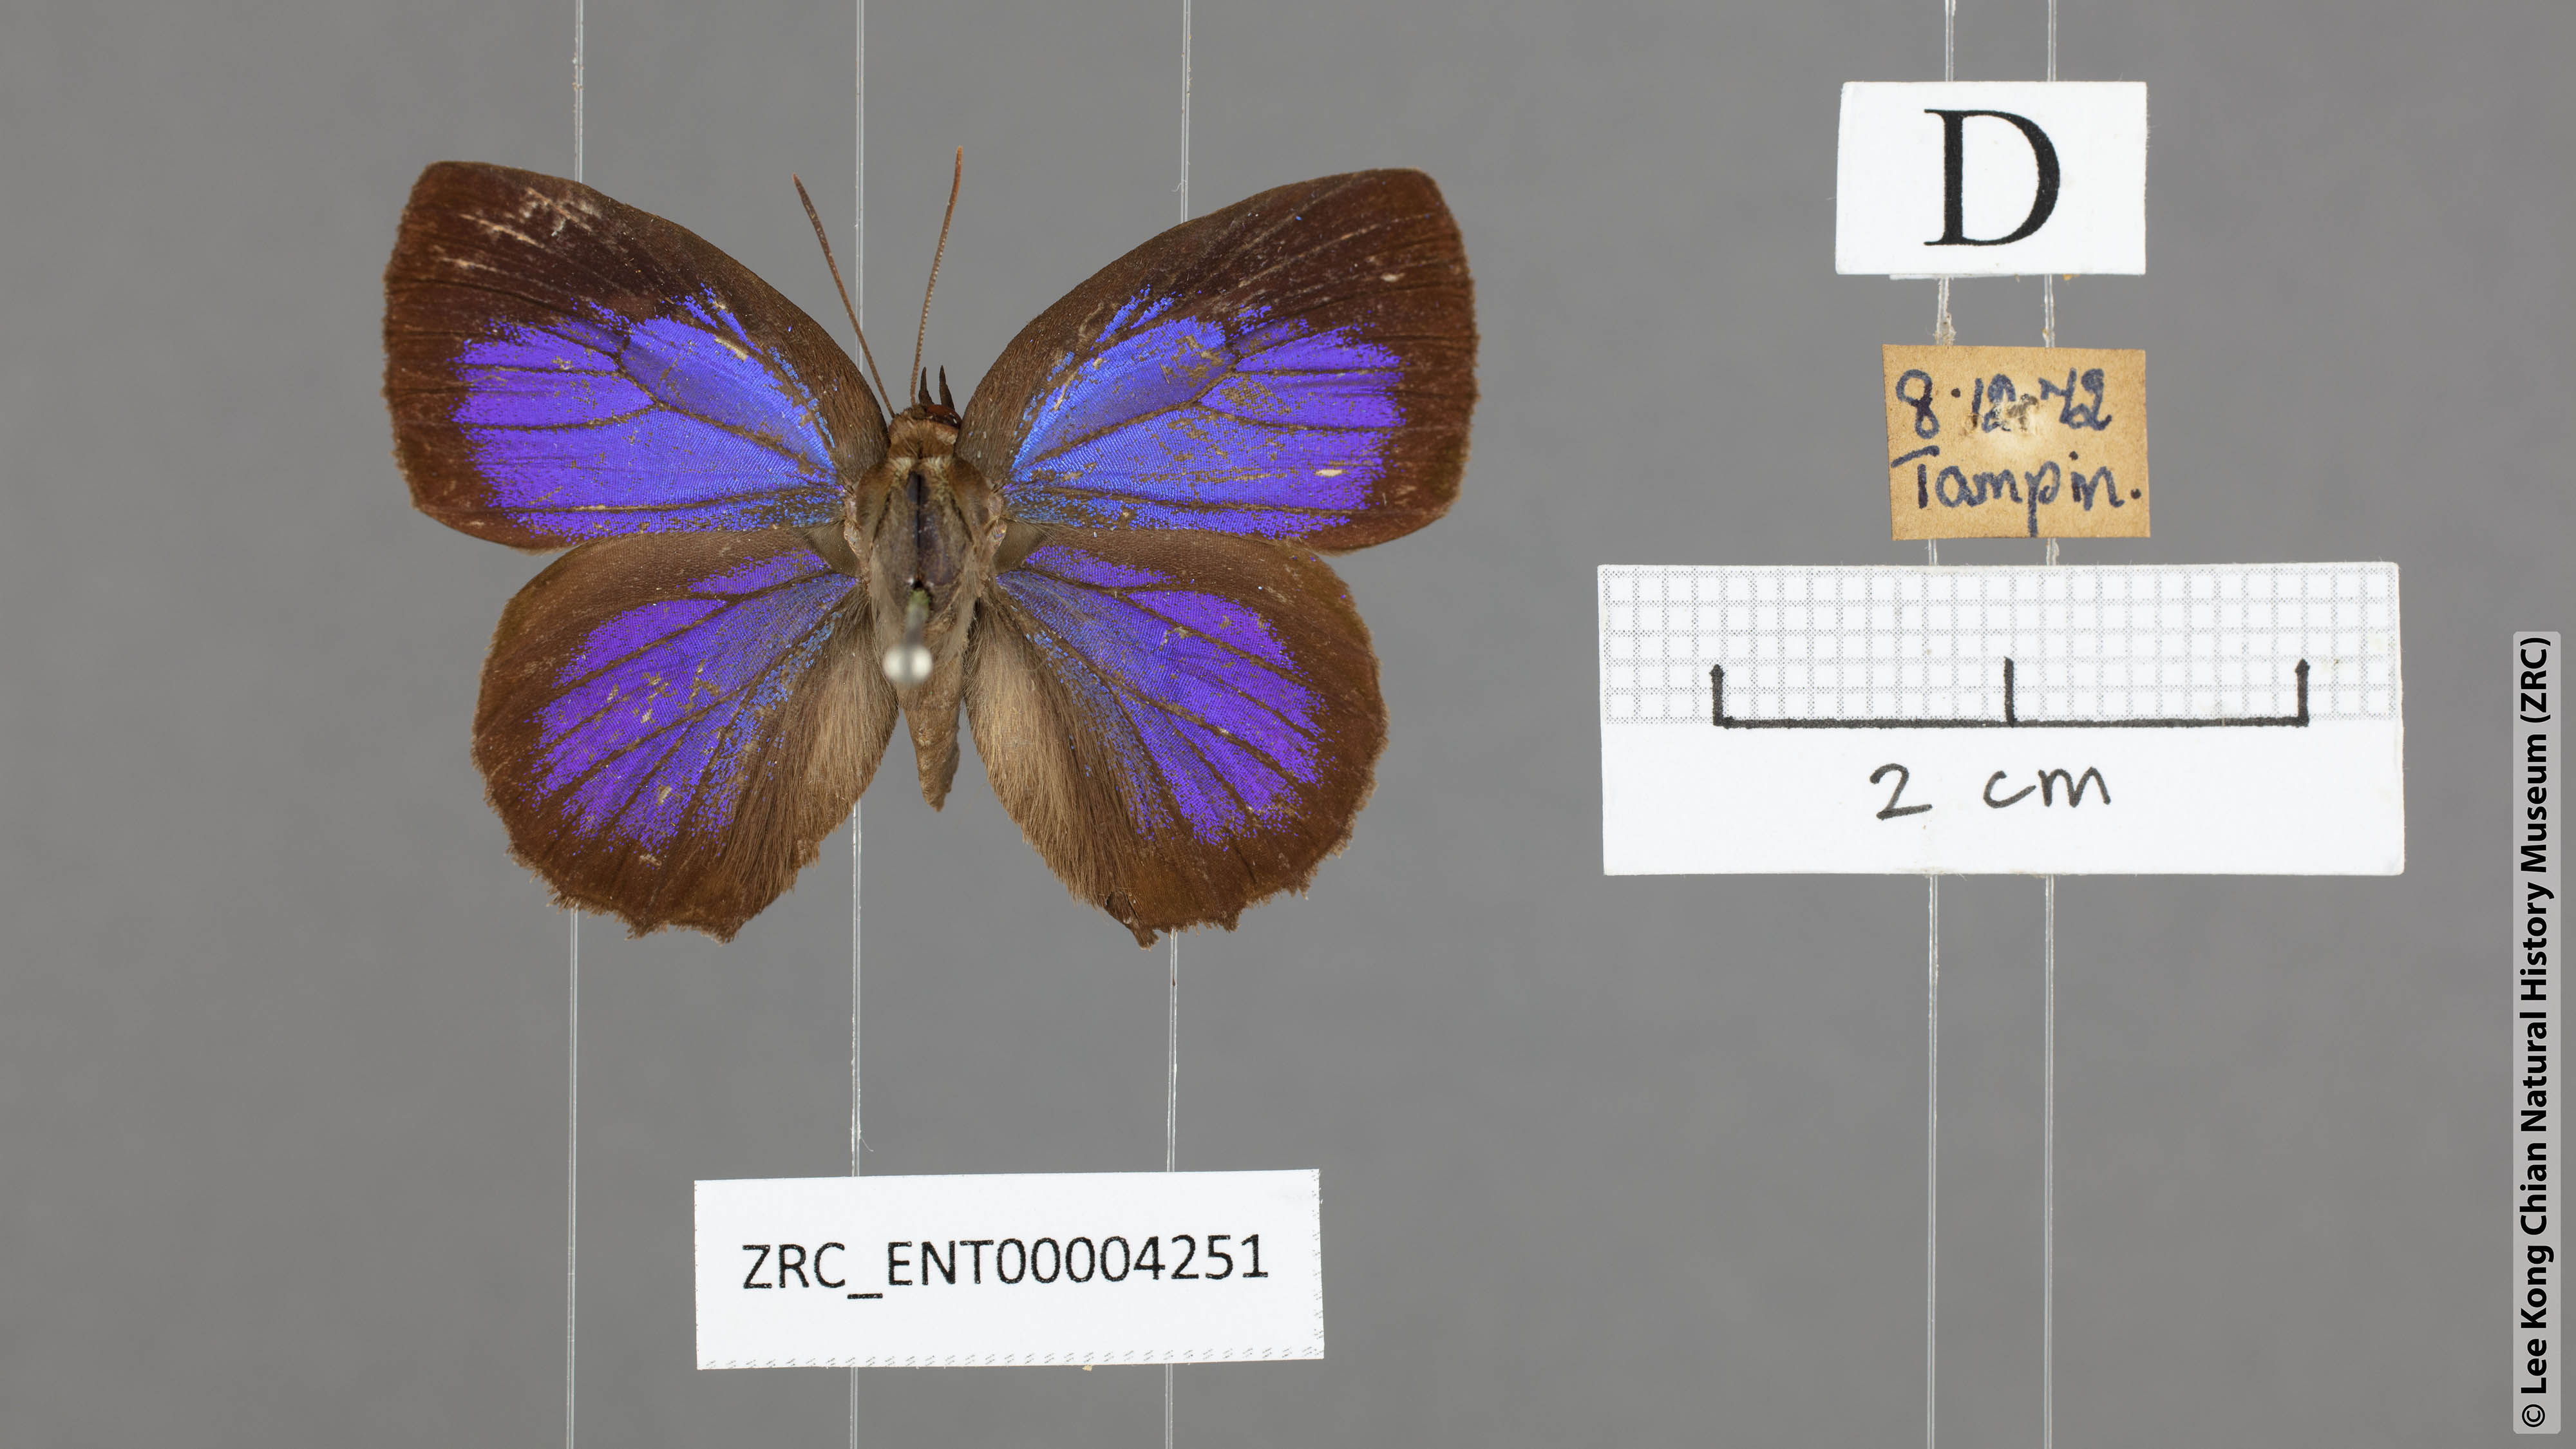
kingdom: Animalia
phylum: Arthropoda
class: Insecta
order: Lepidoptera
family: Lycaenidae
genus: Flos
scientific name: Flos
